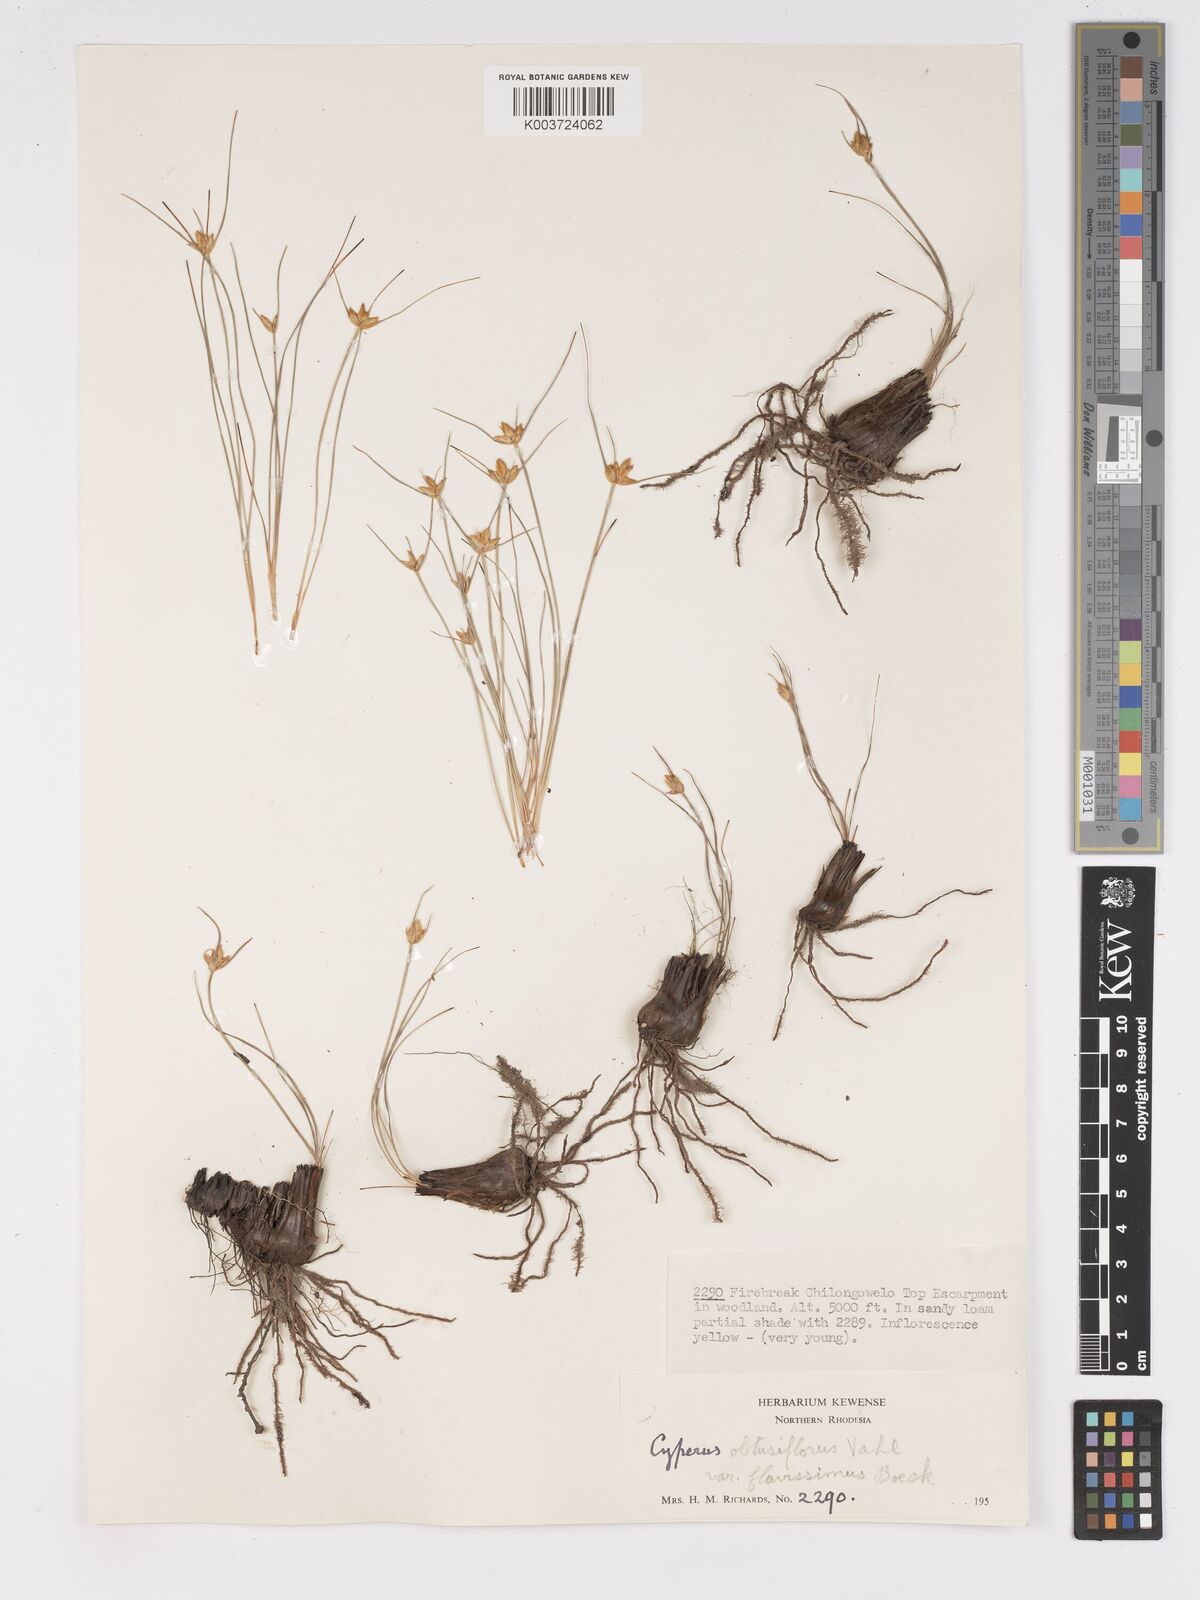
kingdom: Plantae
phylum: Tracheophyta
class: Liliopsida
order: Poales
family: Cyperaceae
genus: Cyperus
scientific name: Cyperus niveus
